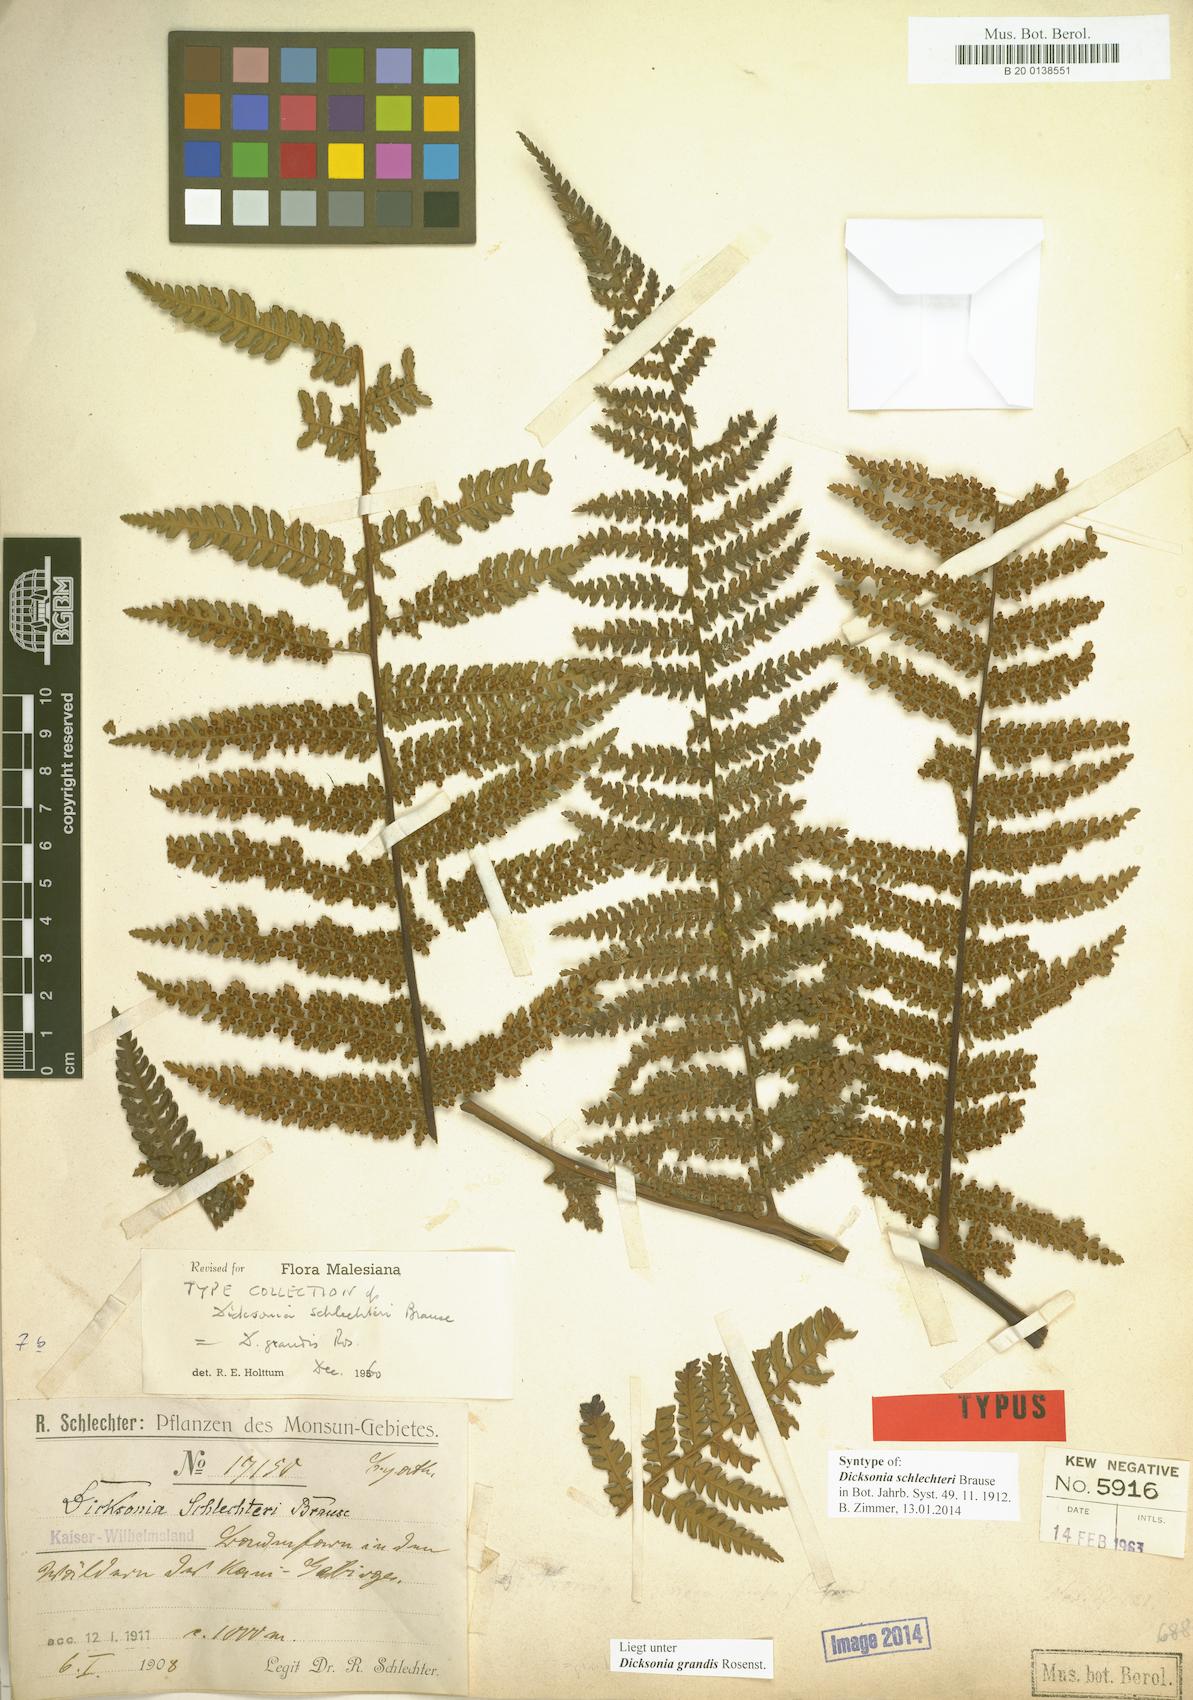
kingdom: Plantae
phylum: Tracheophyta
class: Polypodiopsida
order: Cyatheales
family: Dicksoniaceae
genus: Dicksonia
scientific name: Dicksonia schlechteri
